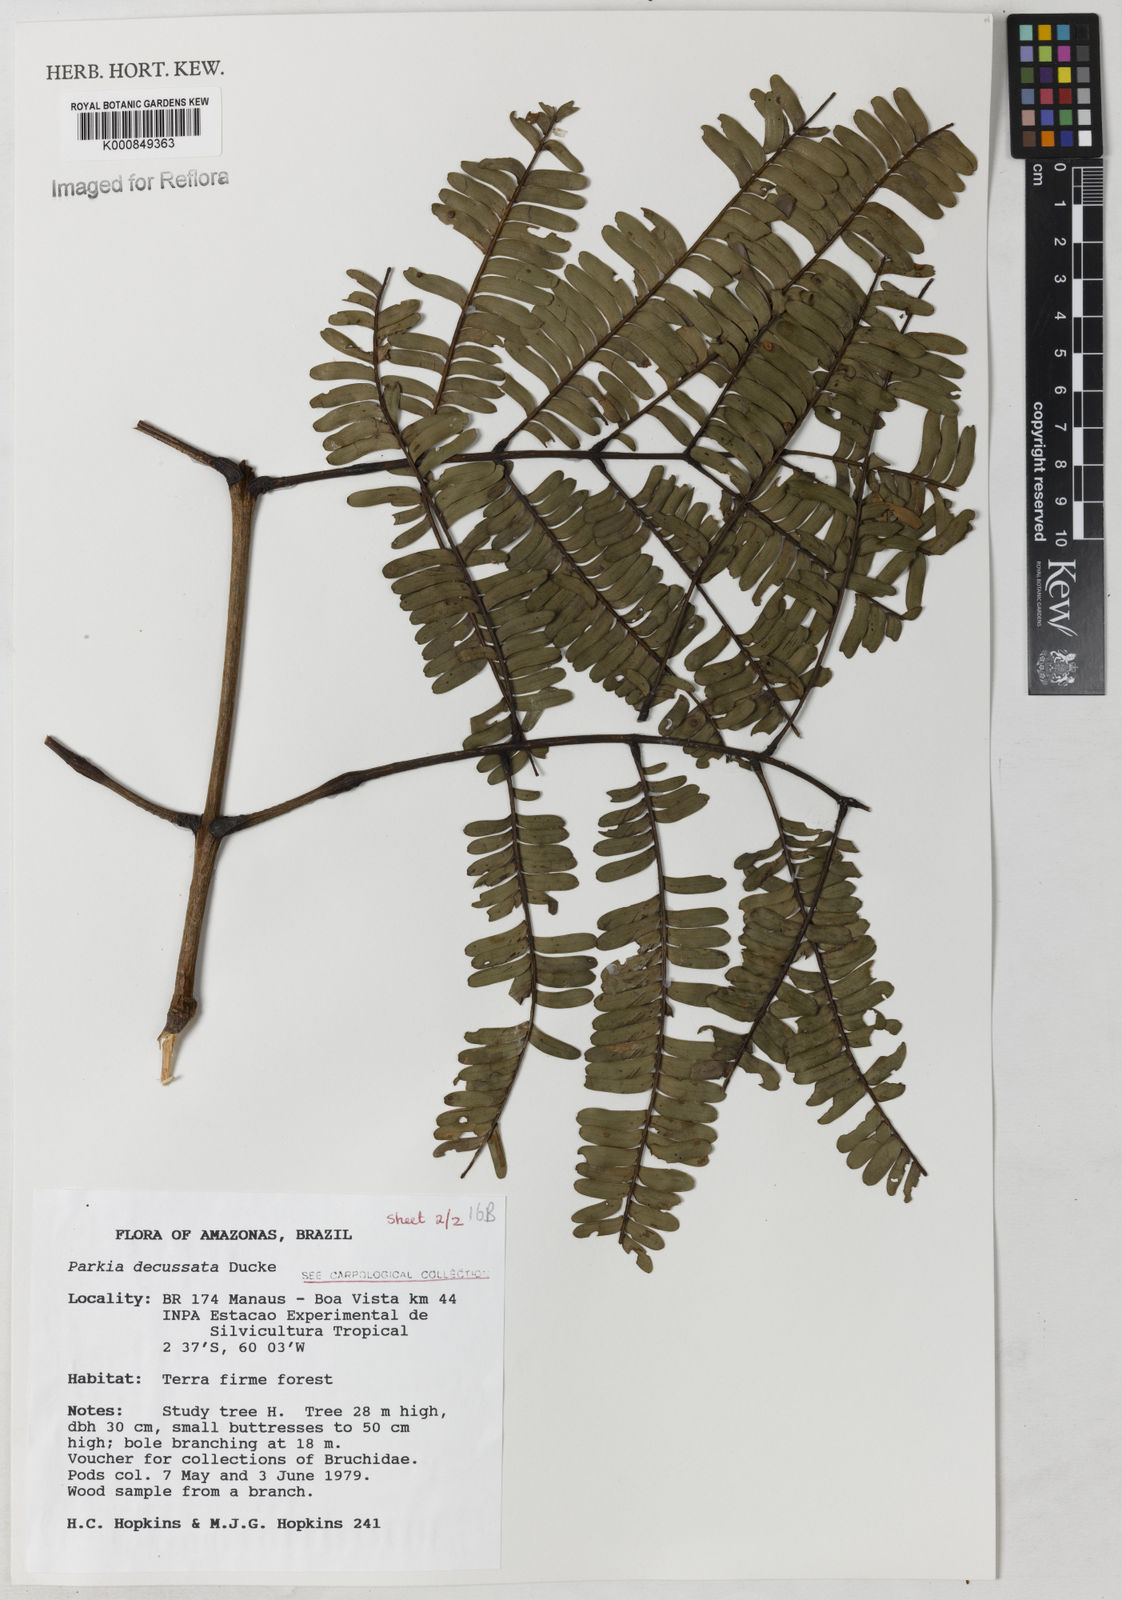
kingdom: Plantae
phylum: Tracheophyta
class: Magnoliopsida
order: Fabales
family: Fabaceae
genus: Parkia
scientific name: Parkia decussata
